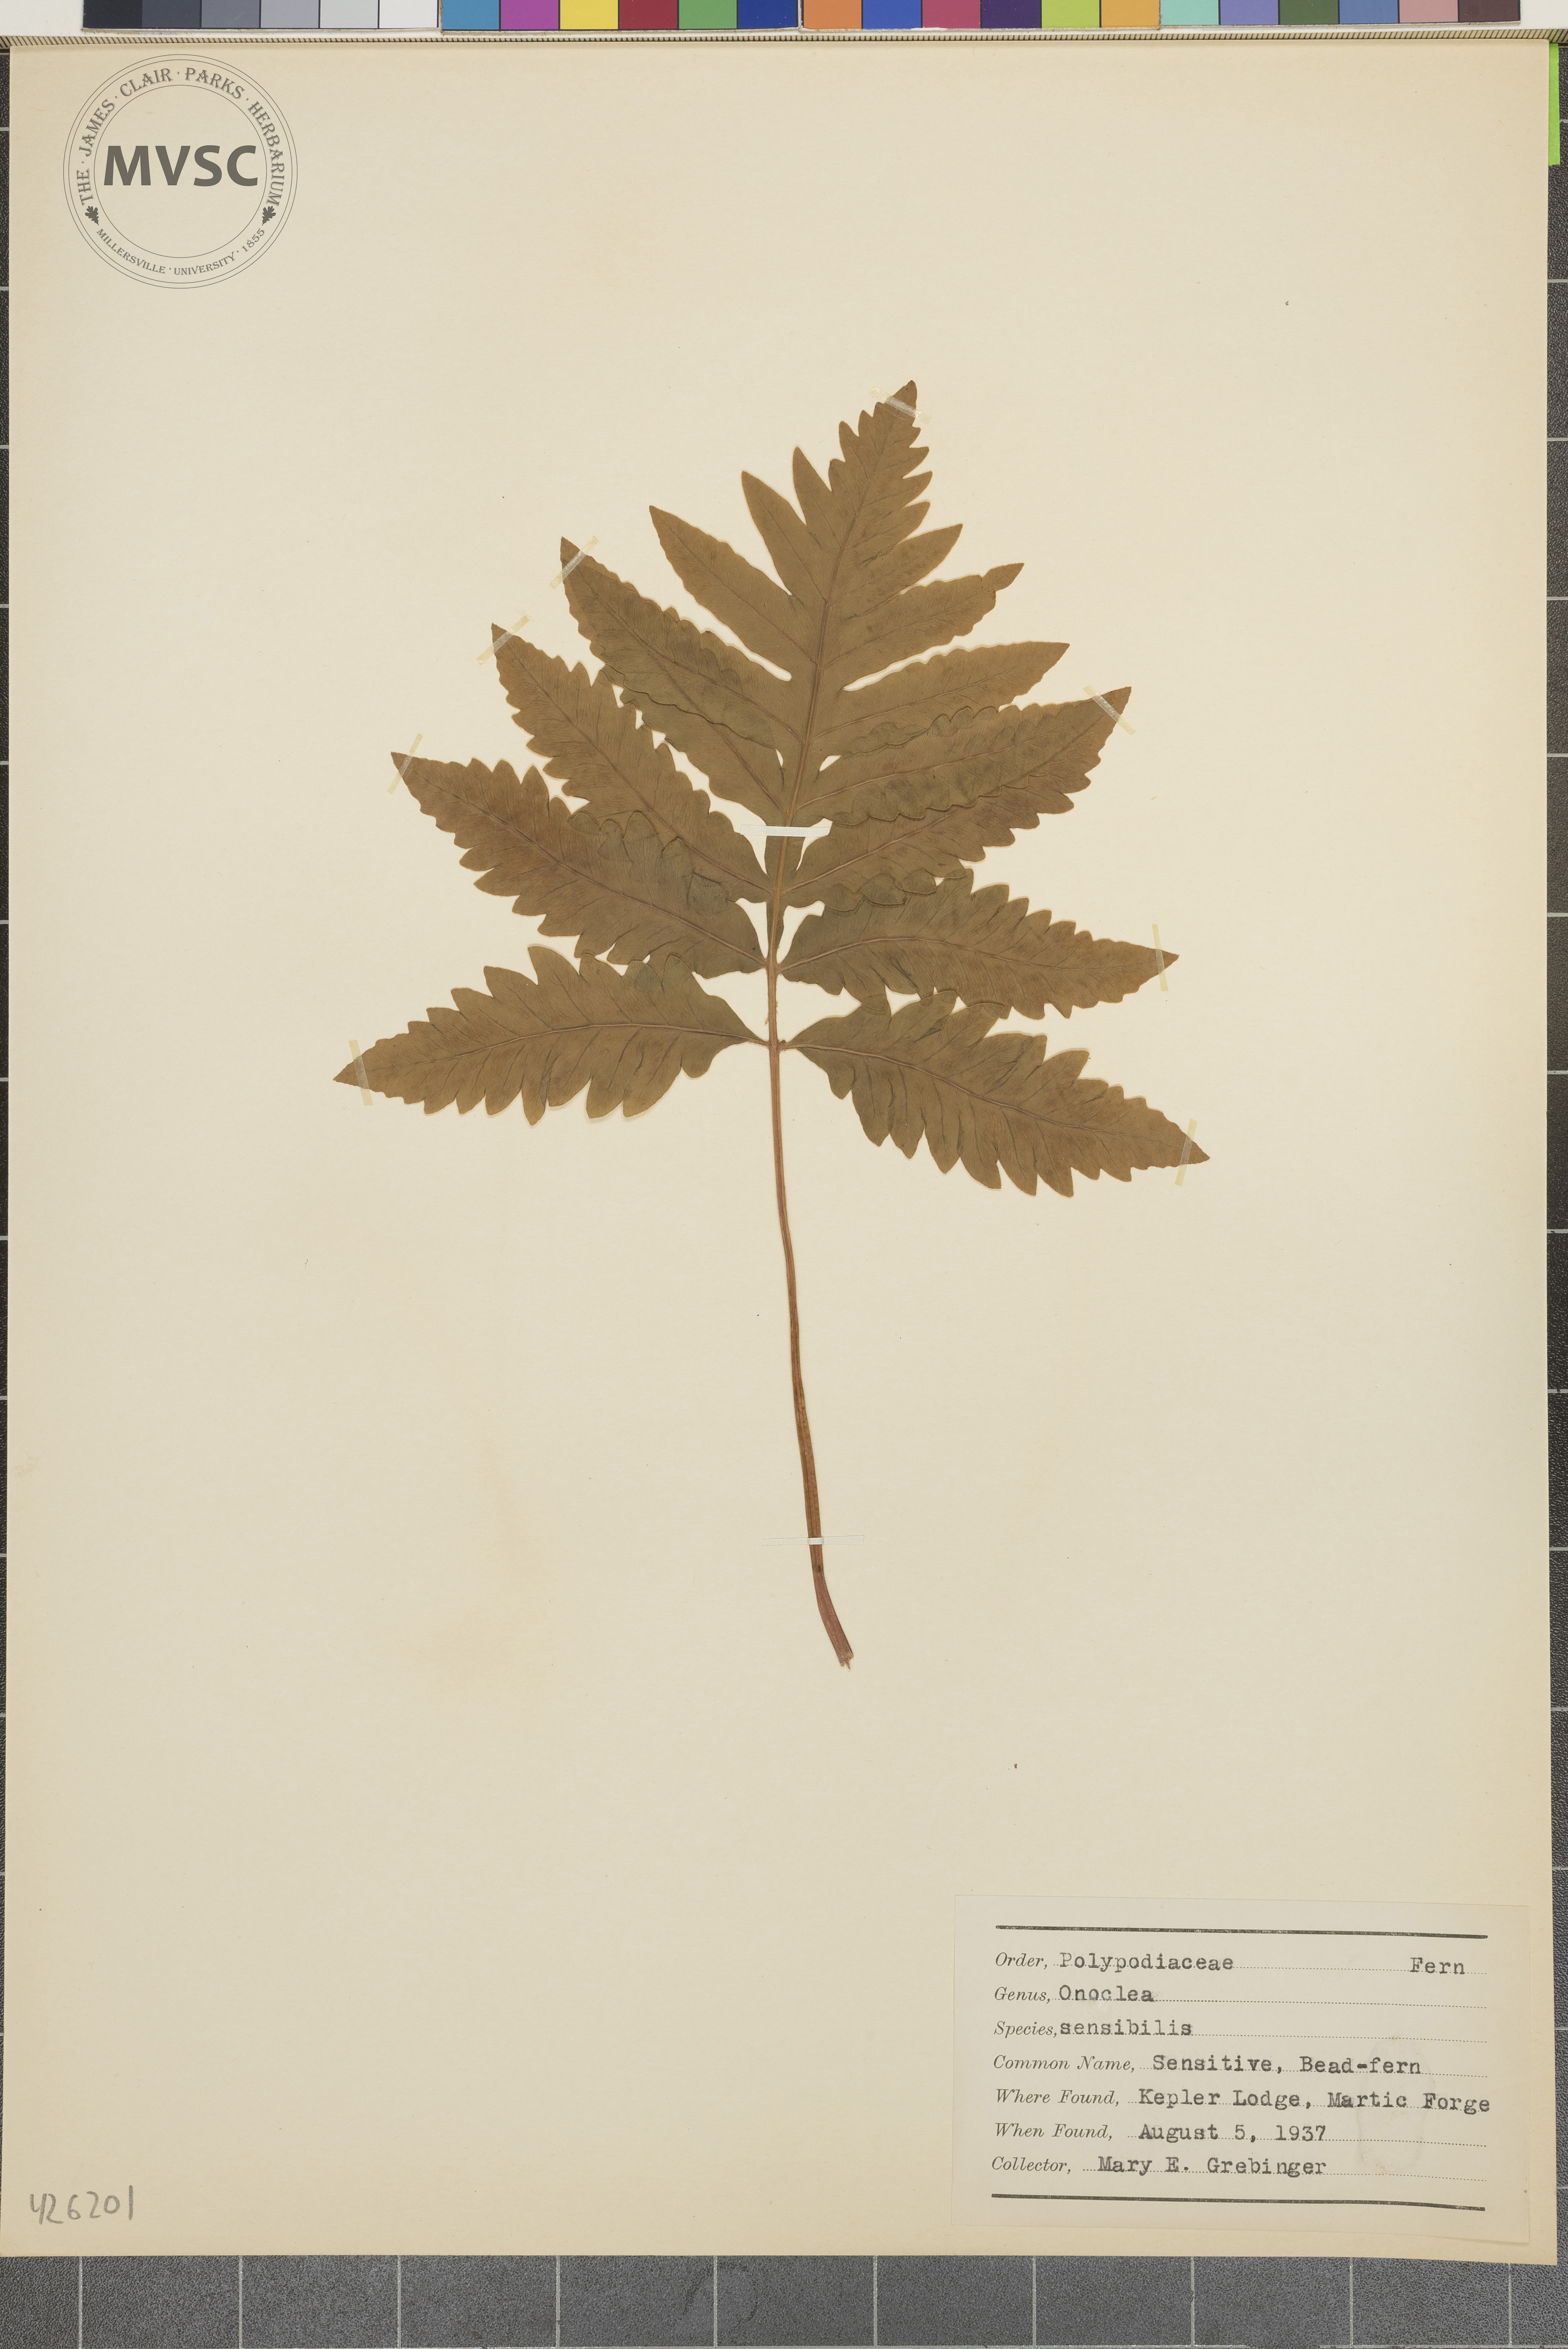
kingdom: Plantae
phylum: Tracheophyta
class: Polypodiopsida
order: Polypodiales
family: Onocleaceae
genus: Onoclea
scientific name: Onoclea sensibilis
